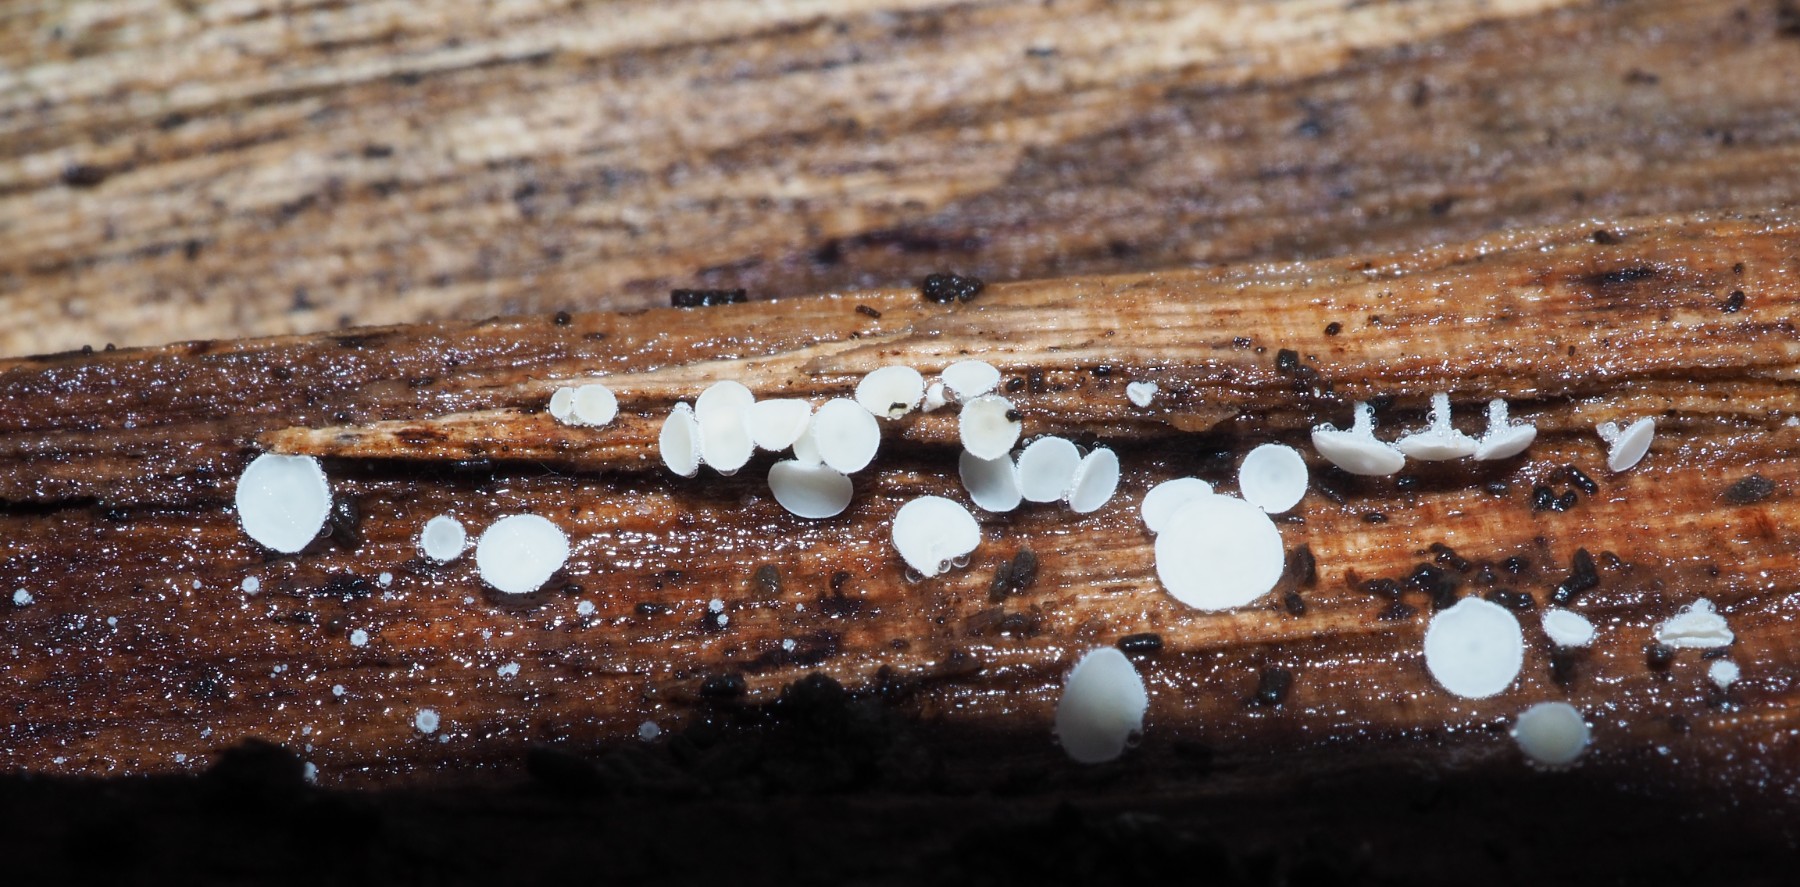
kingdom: Fungi
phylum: Ascomycota
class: Leotiomycetes
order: Helotiales
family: Lachnaceae
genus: Lachnum
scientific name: Lachnum impudicum
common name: vinter-frynseskive
